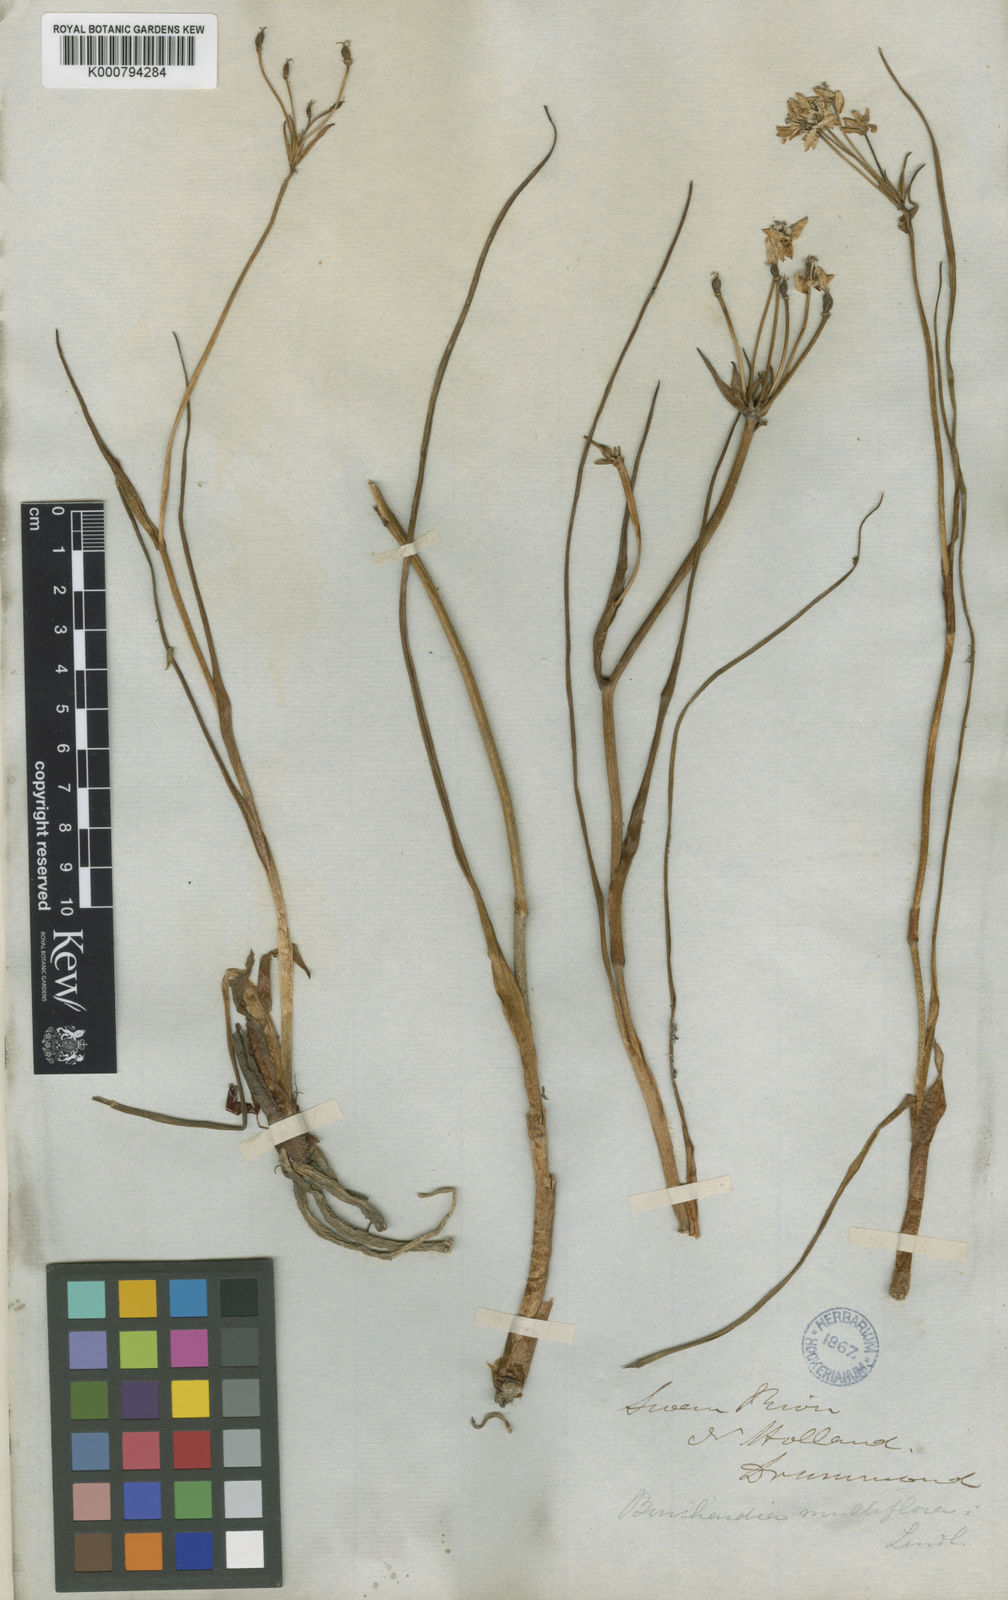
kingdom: Plantae
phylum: Tracheophyta
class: Liliopsida
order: Liliales
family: Colchicaceae
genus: Burchardia
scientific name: Burchardia multiflora
